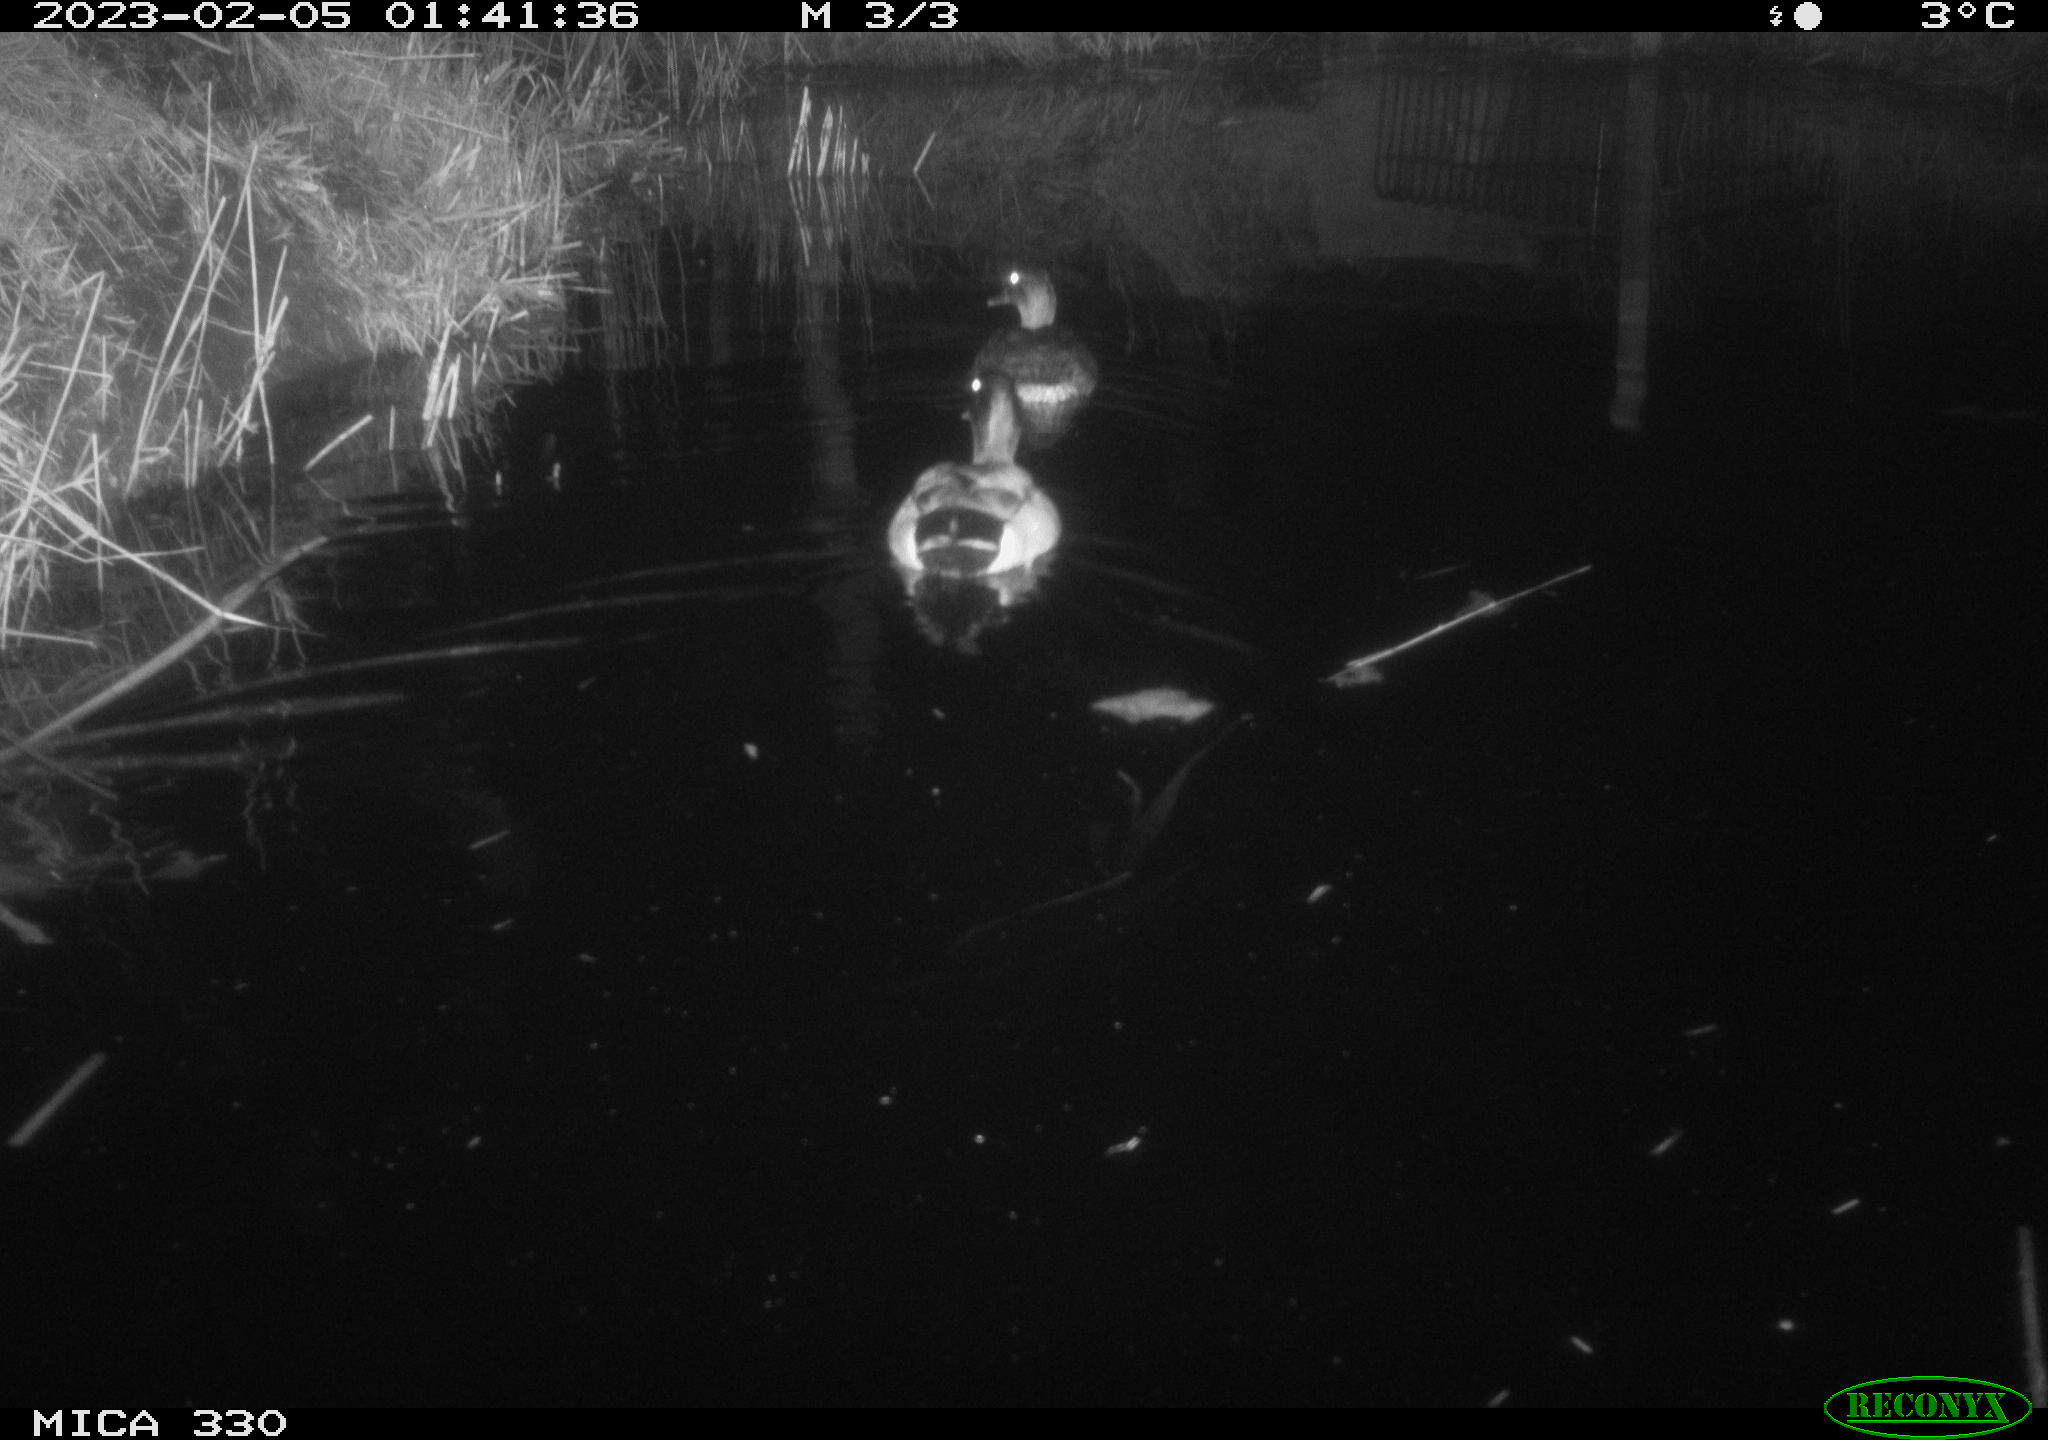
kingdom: Animalia
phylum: Chordata
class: Aves
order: Anseriformes
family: Anatidae
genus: Anas
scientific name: Anas
